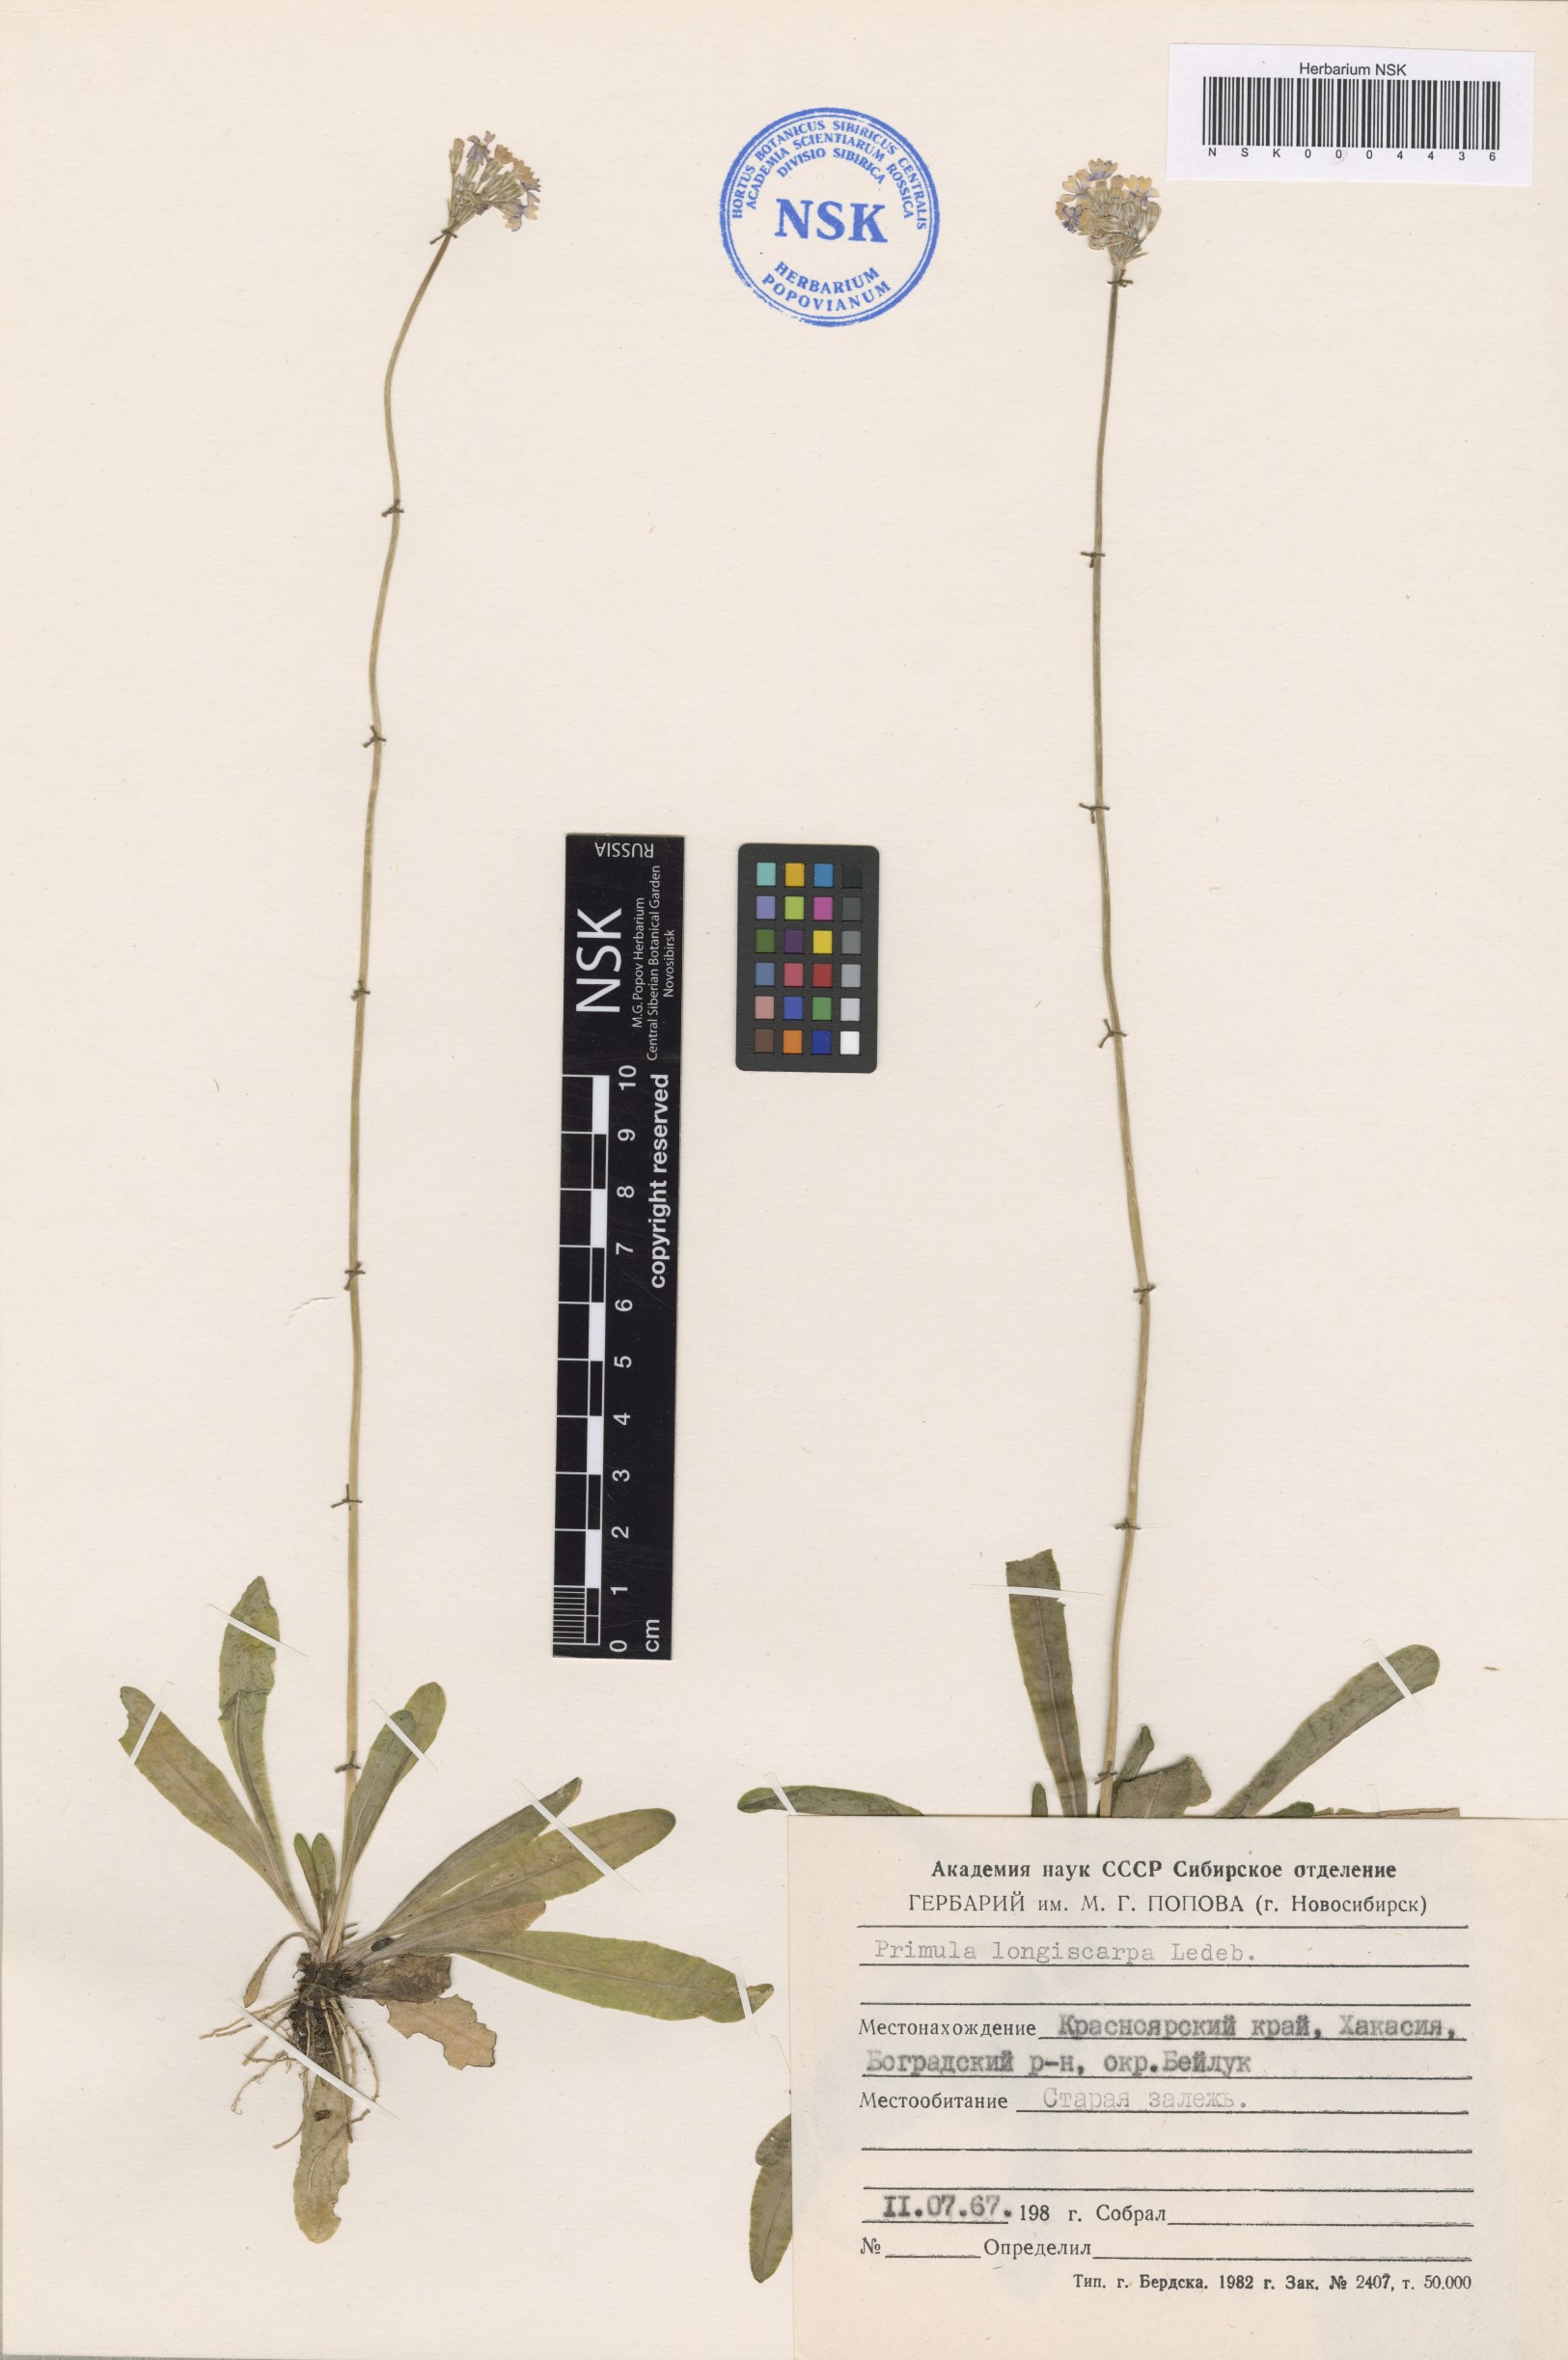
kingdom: Plantae
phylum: Tracheophyta
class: Magnoliopsida
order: Ericales
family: Primulaceae
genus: Primula
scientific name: Primula longiscapa
